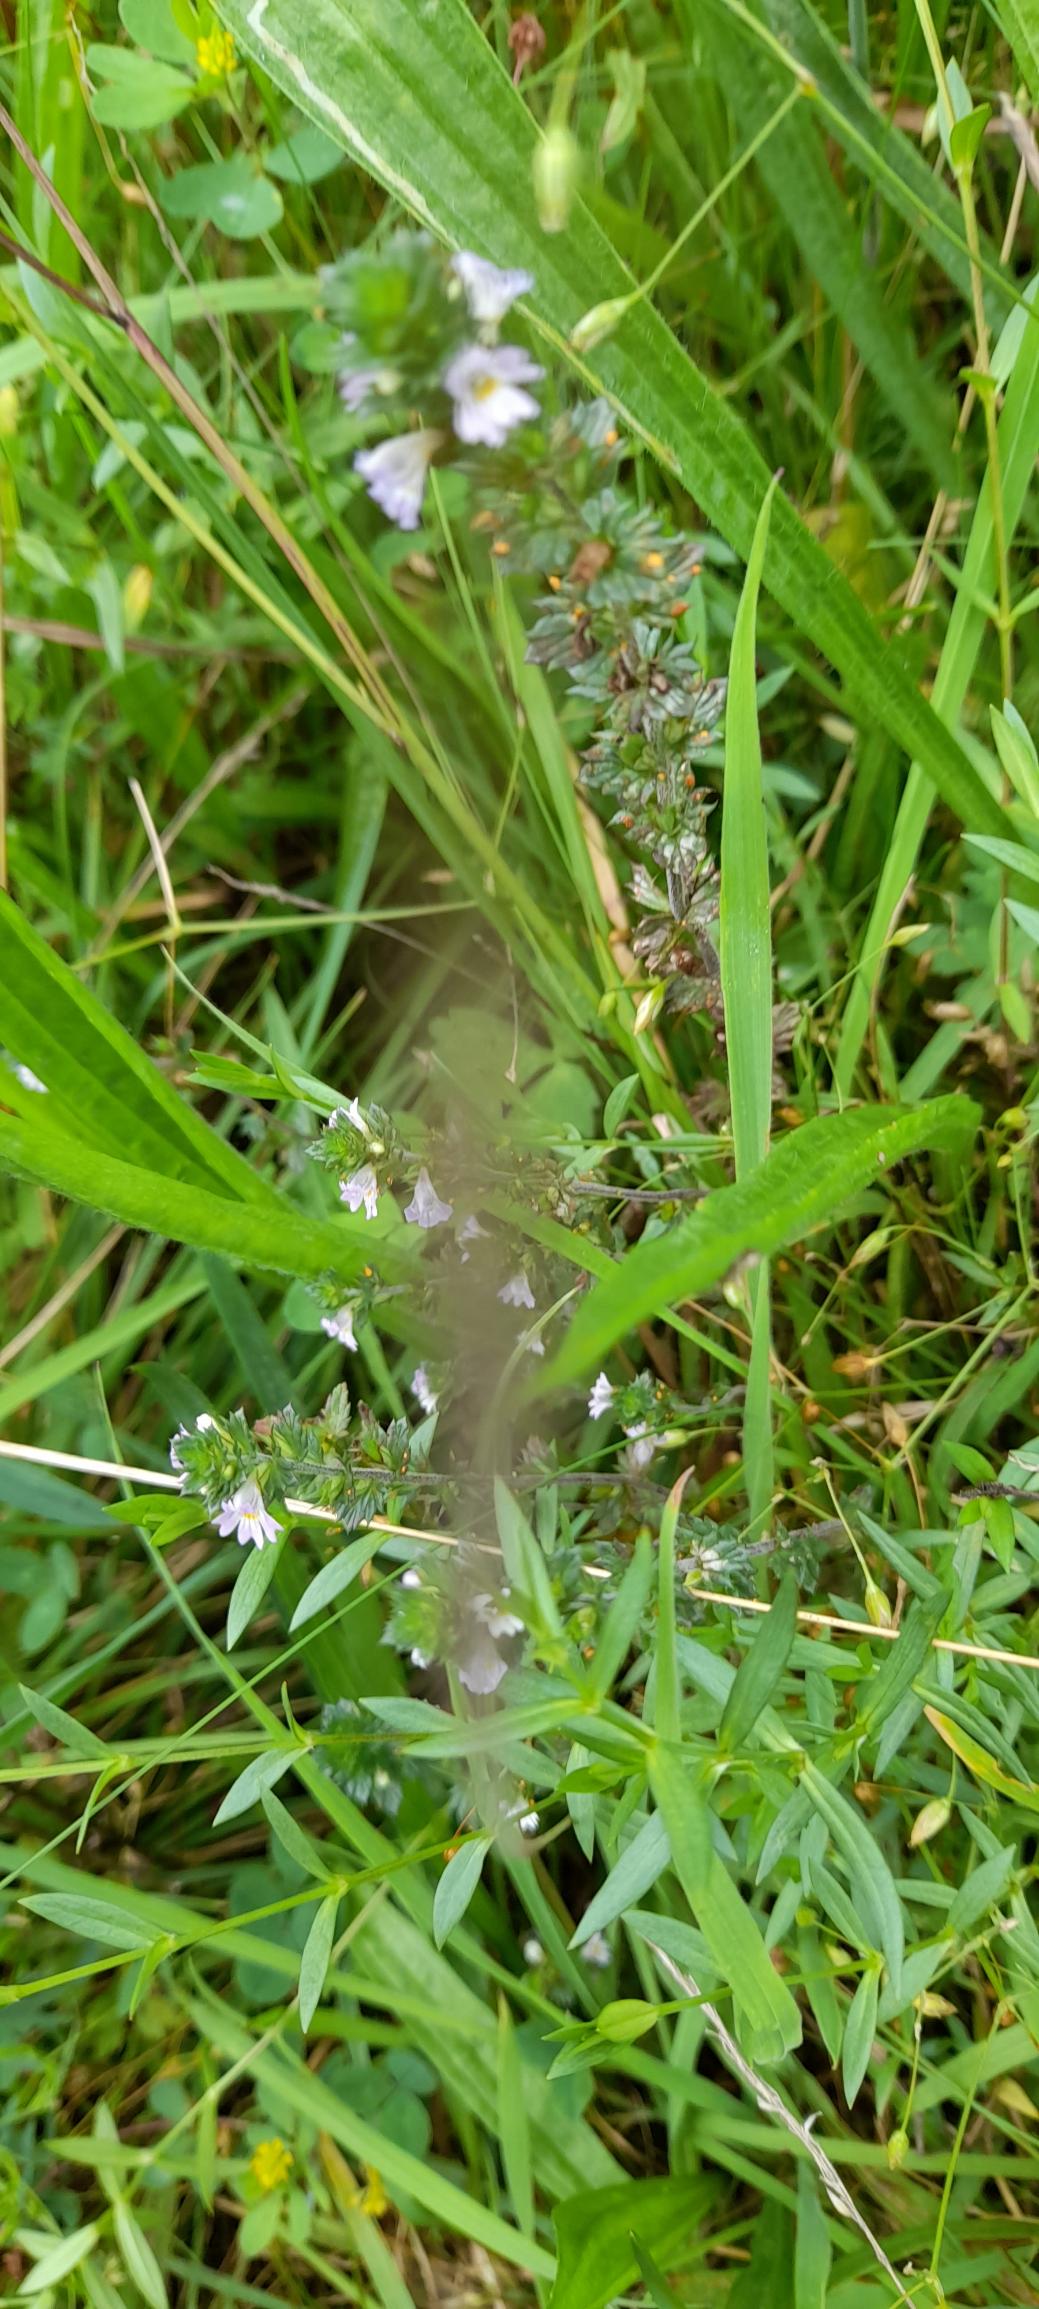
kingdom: Plantae
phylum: Tracheophyta
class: Magnoliopsida
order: Lamiales
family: Orobanchaceae
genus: Euphrasia
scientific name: Euphrasia nemorosa
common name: Kort øjentrøst
